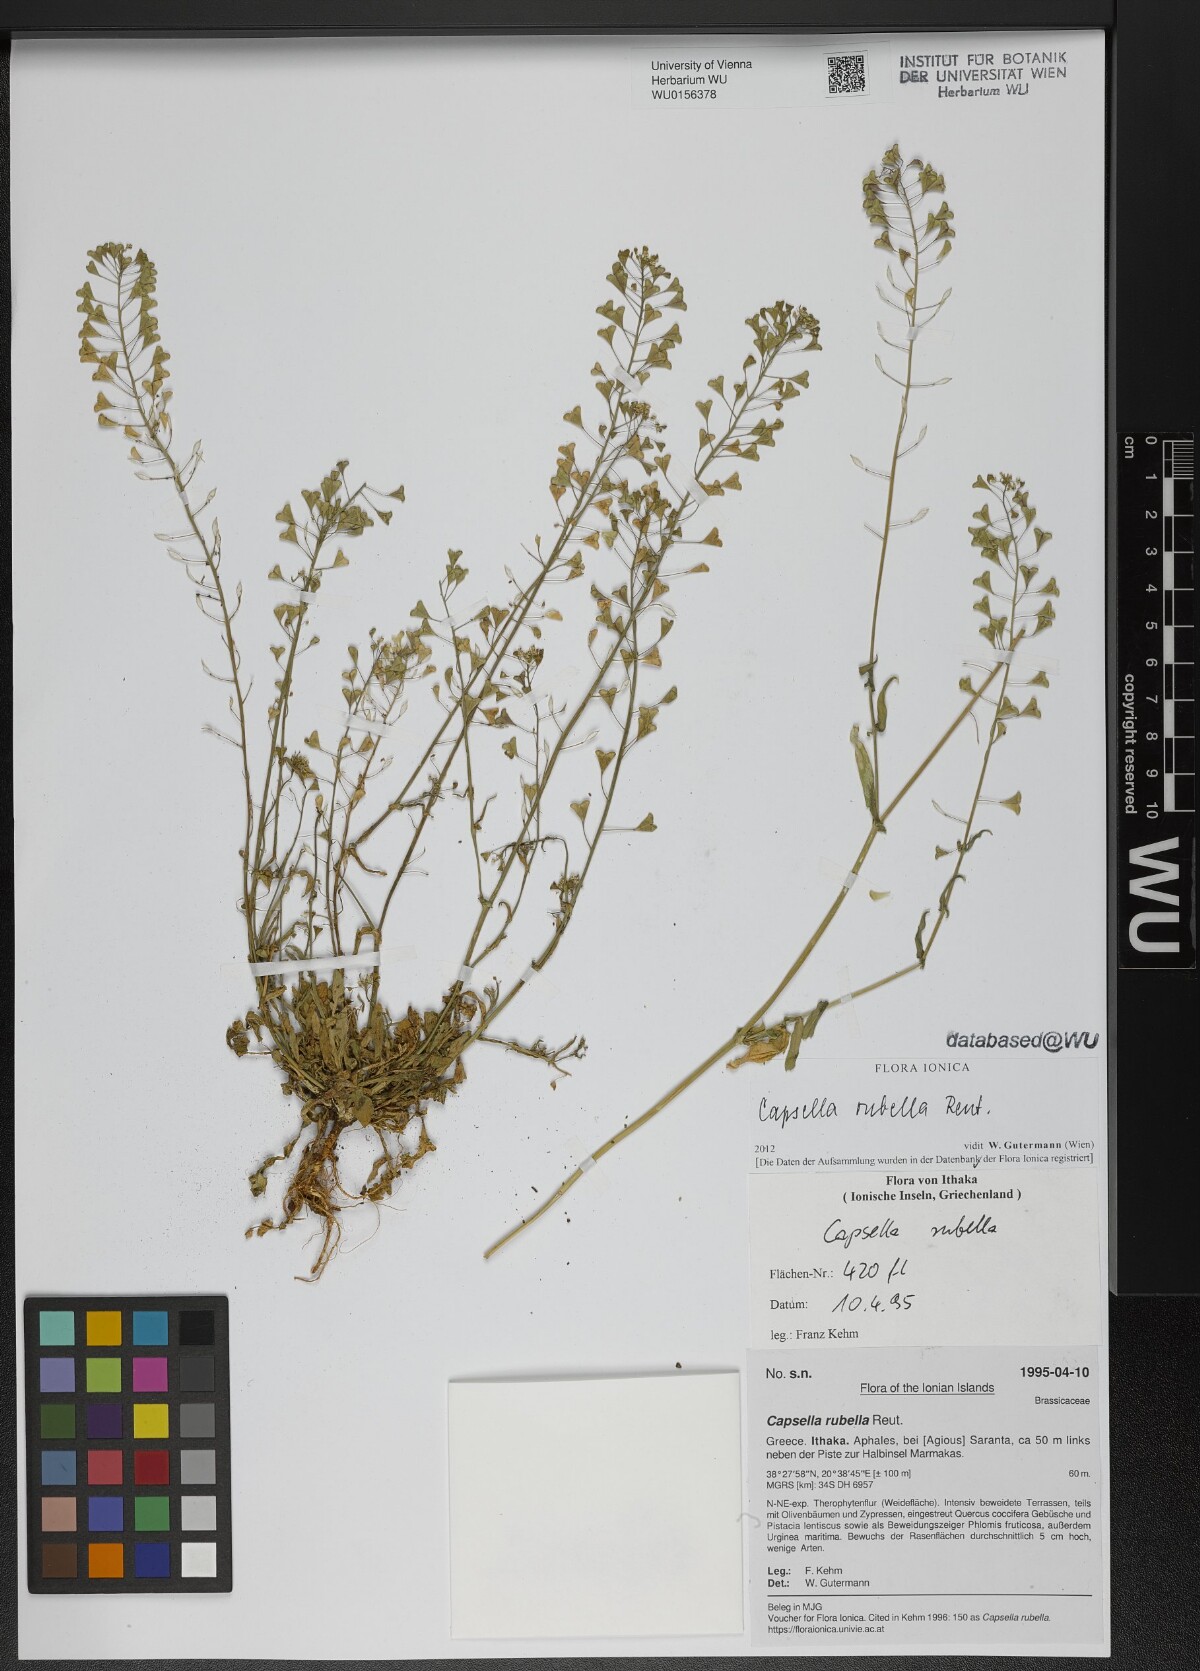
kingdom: Plantae
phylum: Tracheophyta
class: Magnoliopsida
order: Brassicales
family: Brassicaceae
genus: Capsella
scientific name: Capsella rubella
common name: Pink shepherd's-purse
